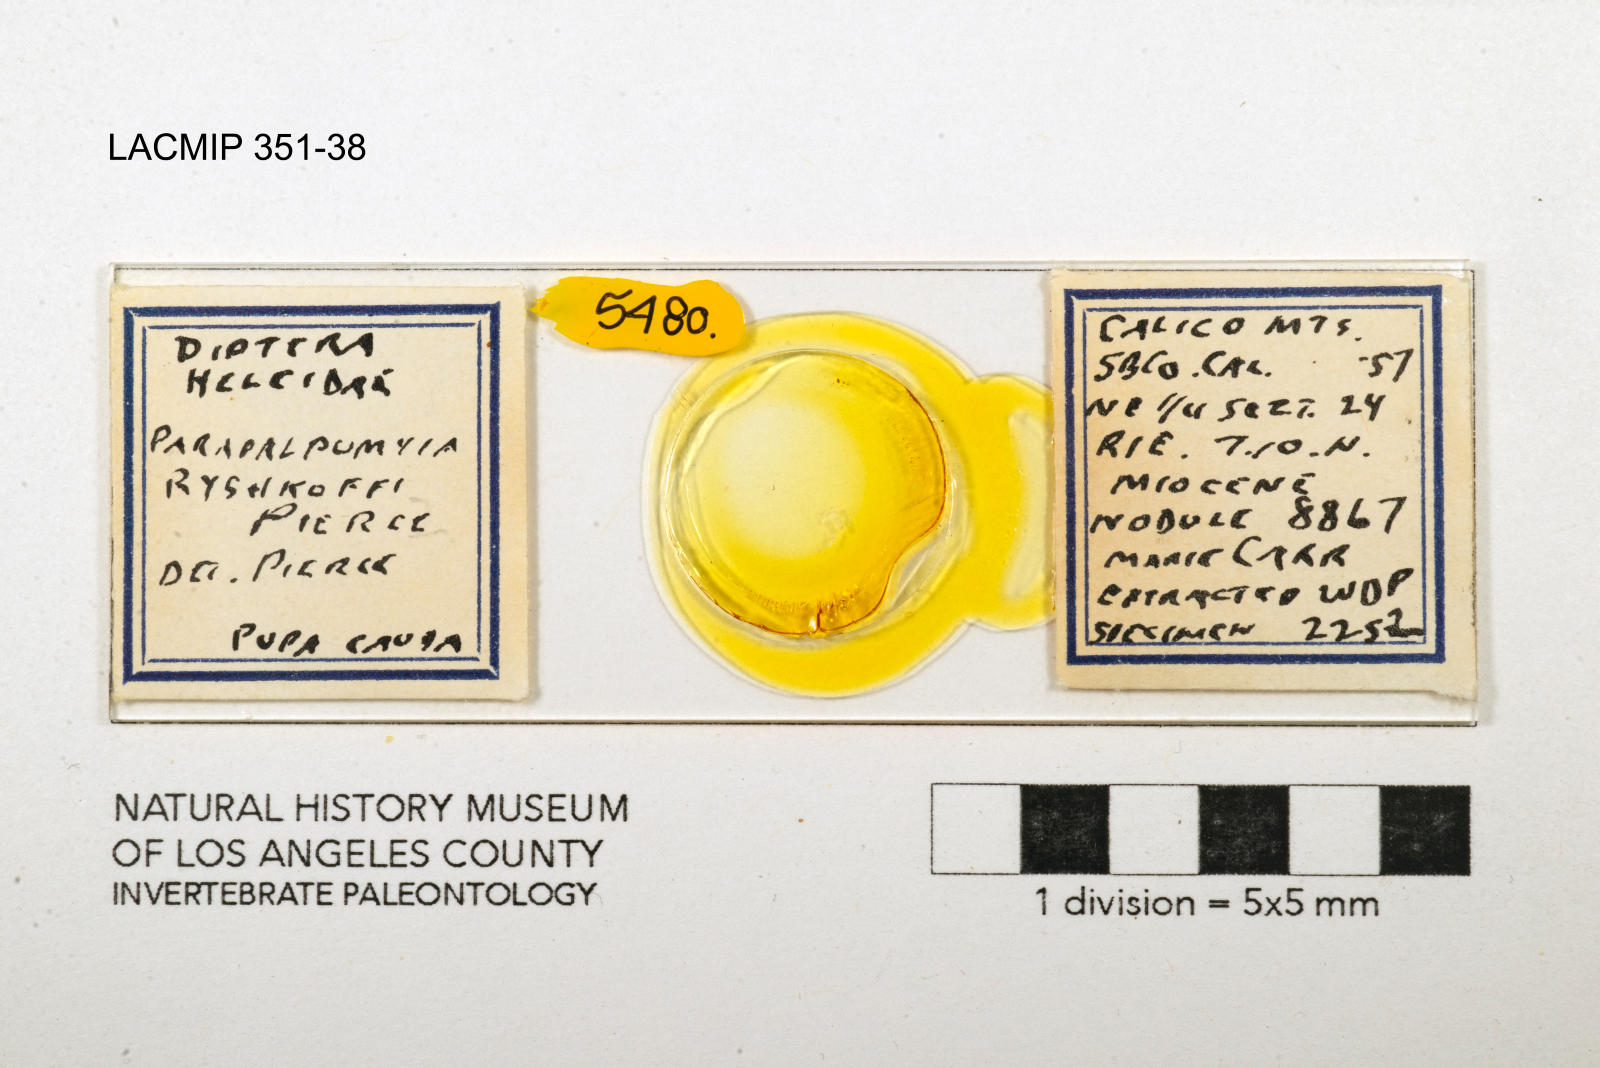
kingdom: Animalia
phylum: Arthropoda
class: Insecta
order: Diptera
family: Ceratopogonidae
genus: Palpomyia
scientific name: Palpomyia ryshkoffi
